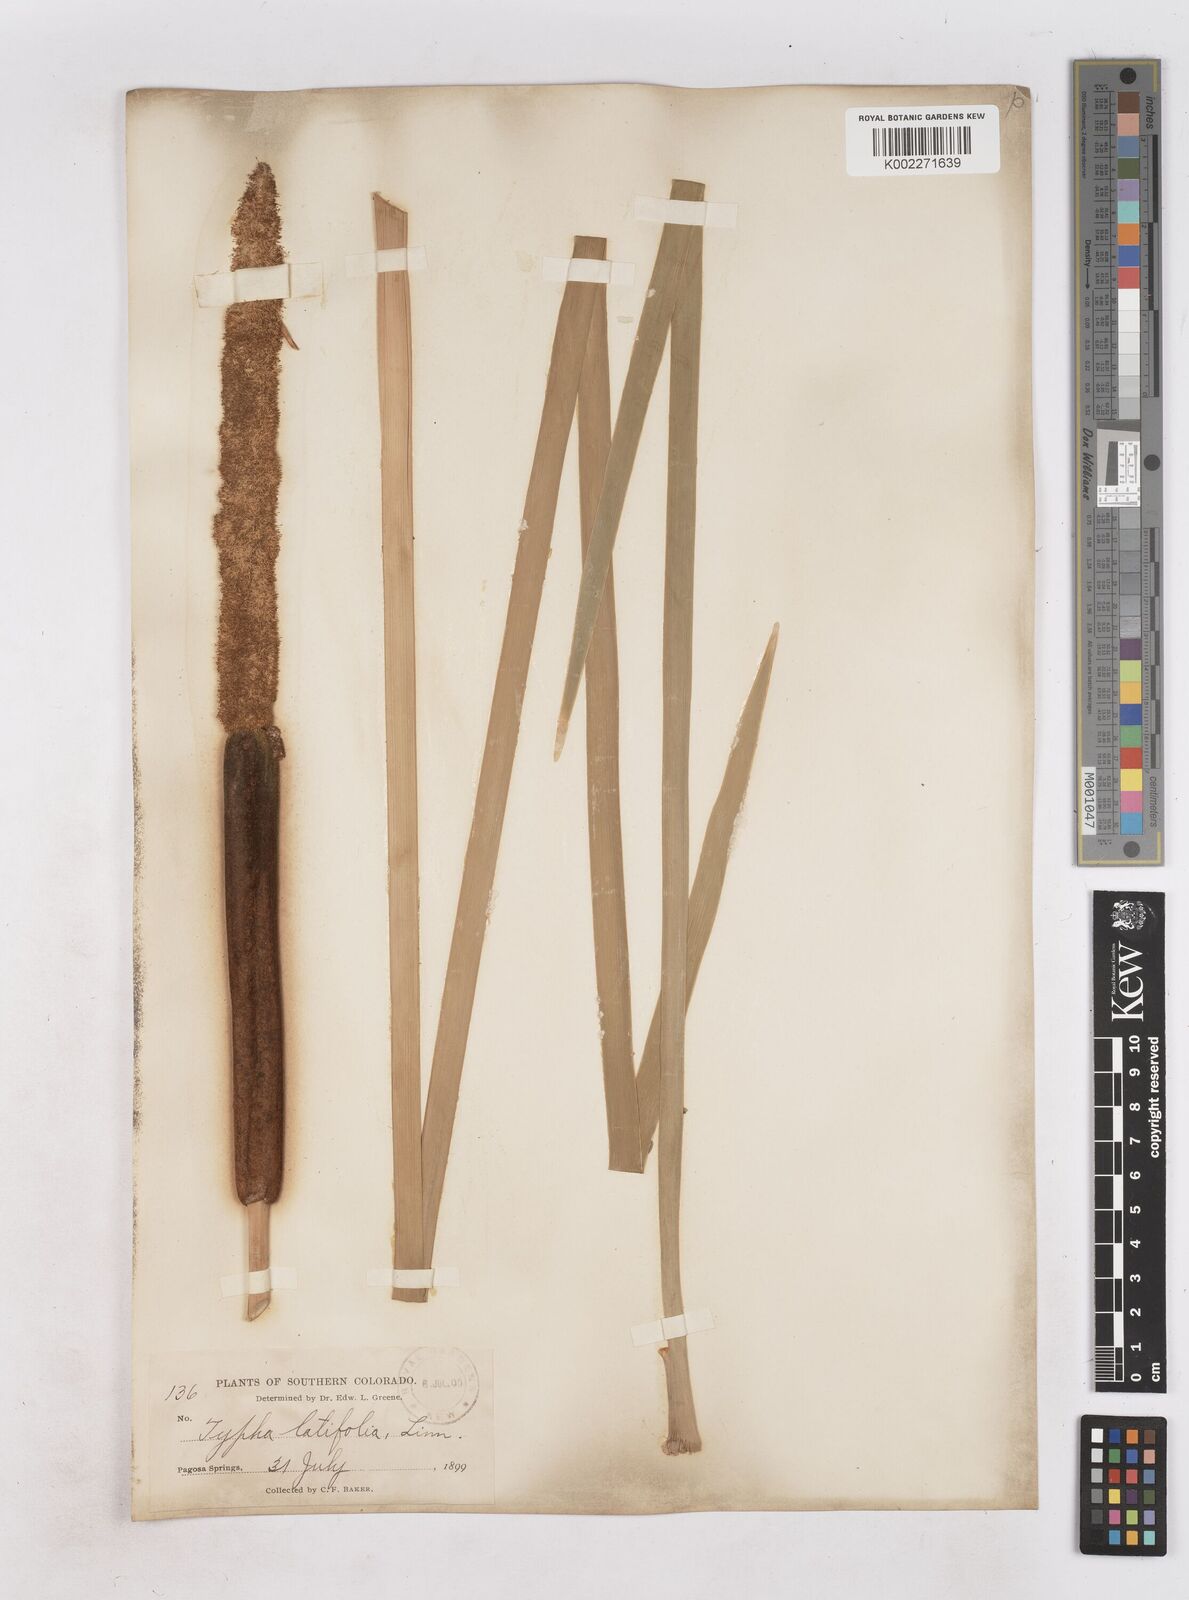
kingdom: Plantae
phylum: Tracheophyta
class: Liliopsida
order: Poales
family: Typhaceae
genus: Typha
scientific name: Typha latifolia
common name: Broadleaf cattail
